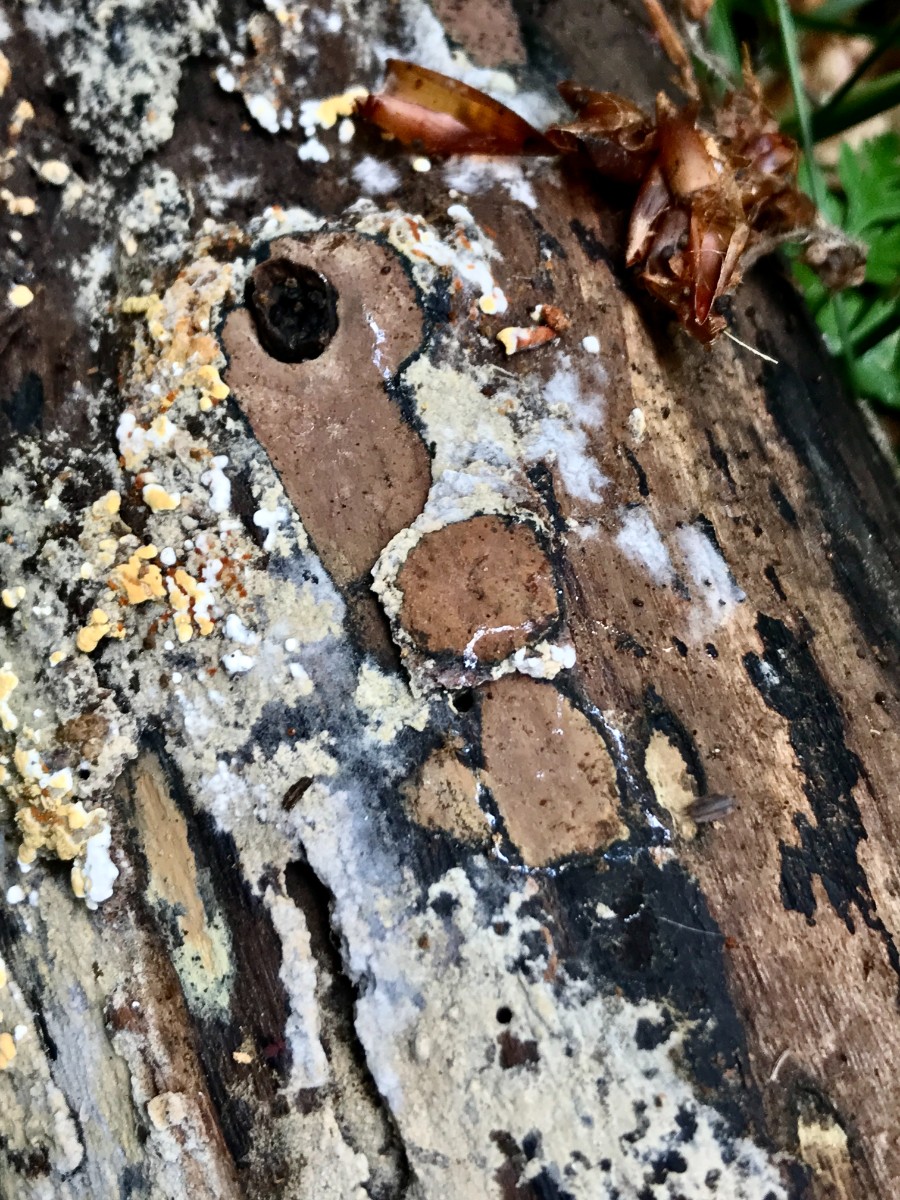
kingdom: Fungi
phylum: Ascomycota
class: Sordariomycetes
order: Xylariales
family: Hypoxylaceae
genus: Hypoxylon
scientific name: Hypoxylon petriniae
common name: nedsænket kulbær
